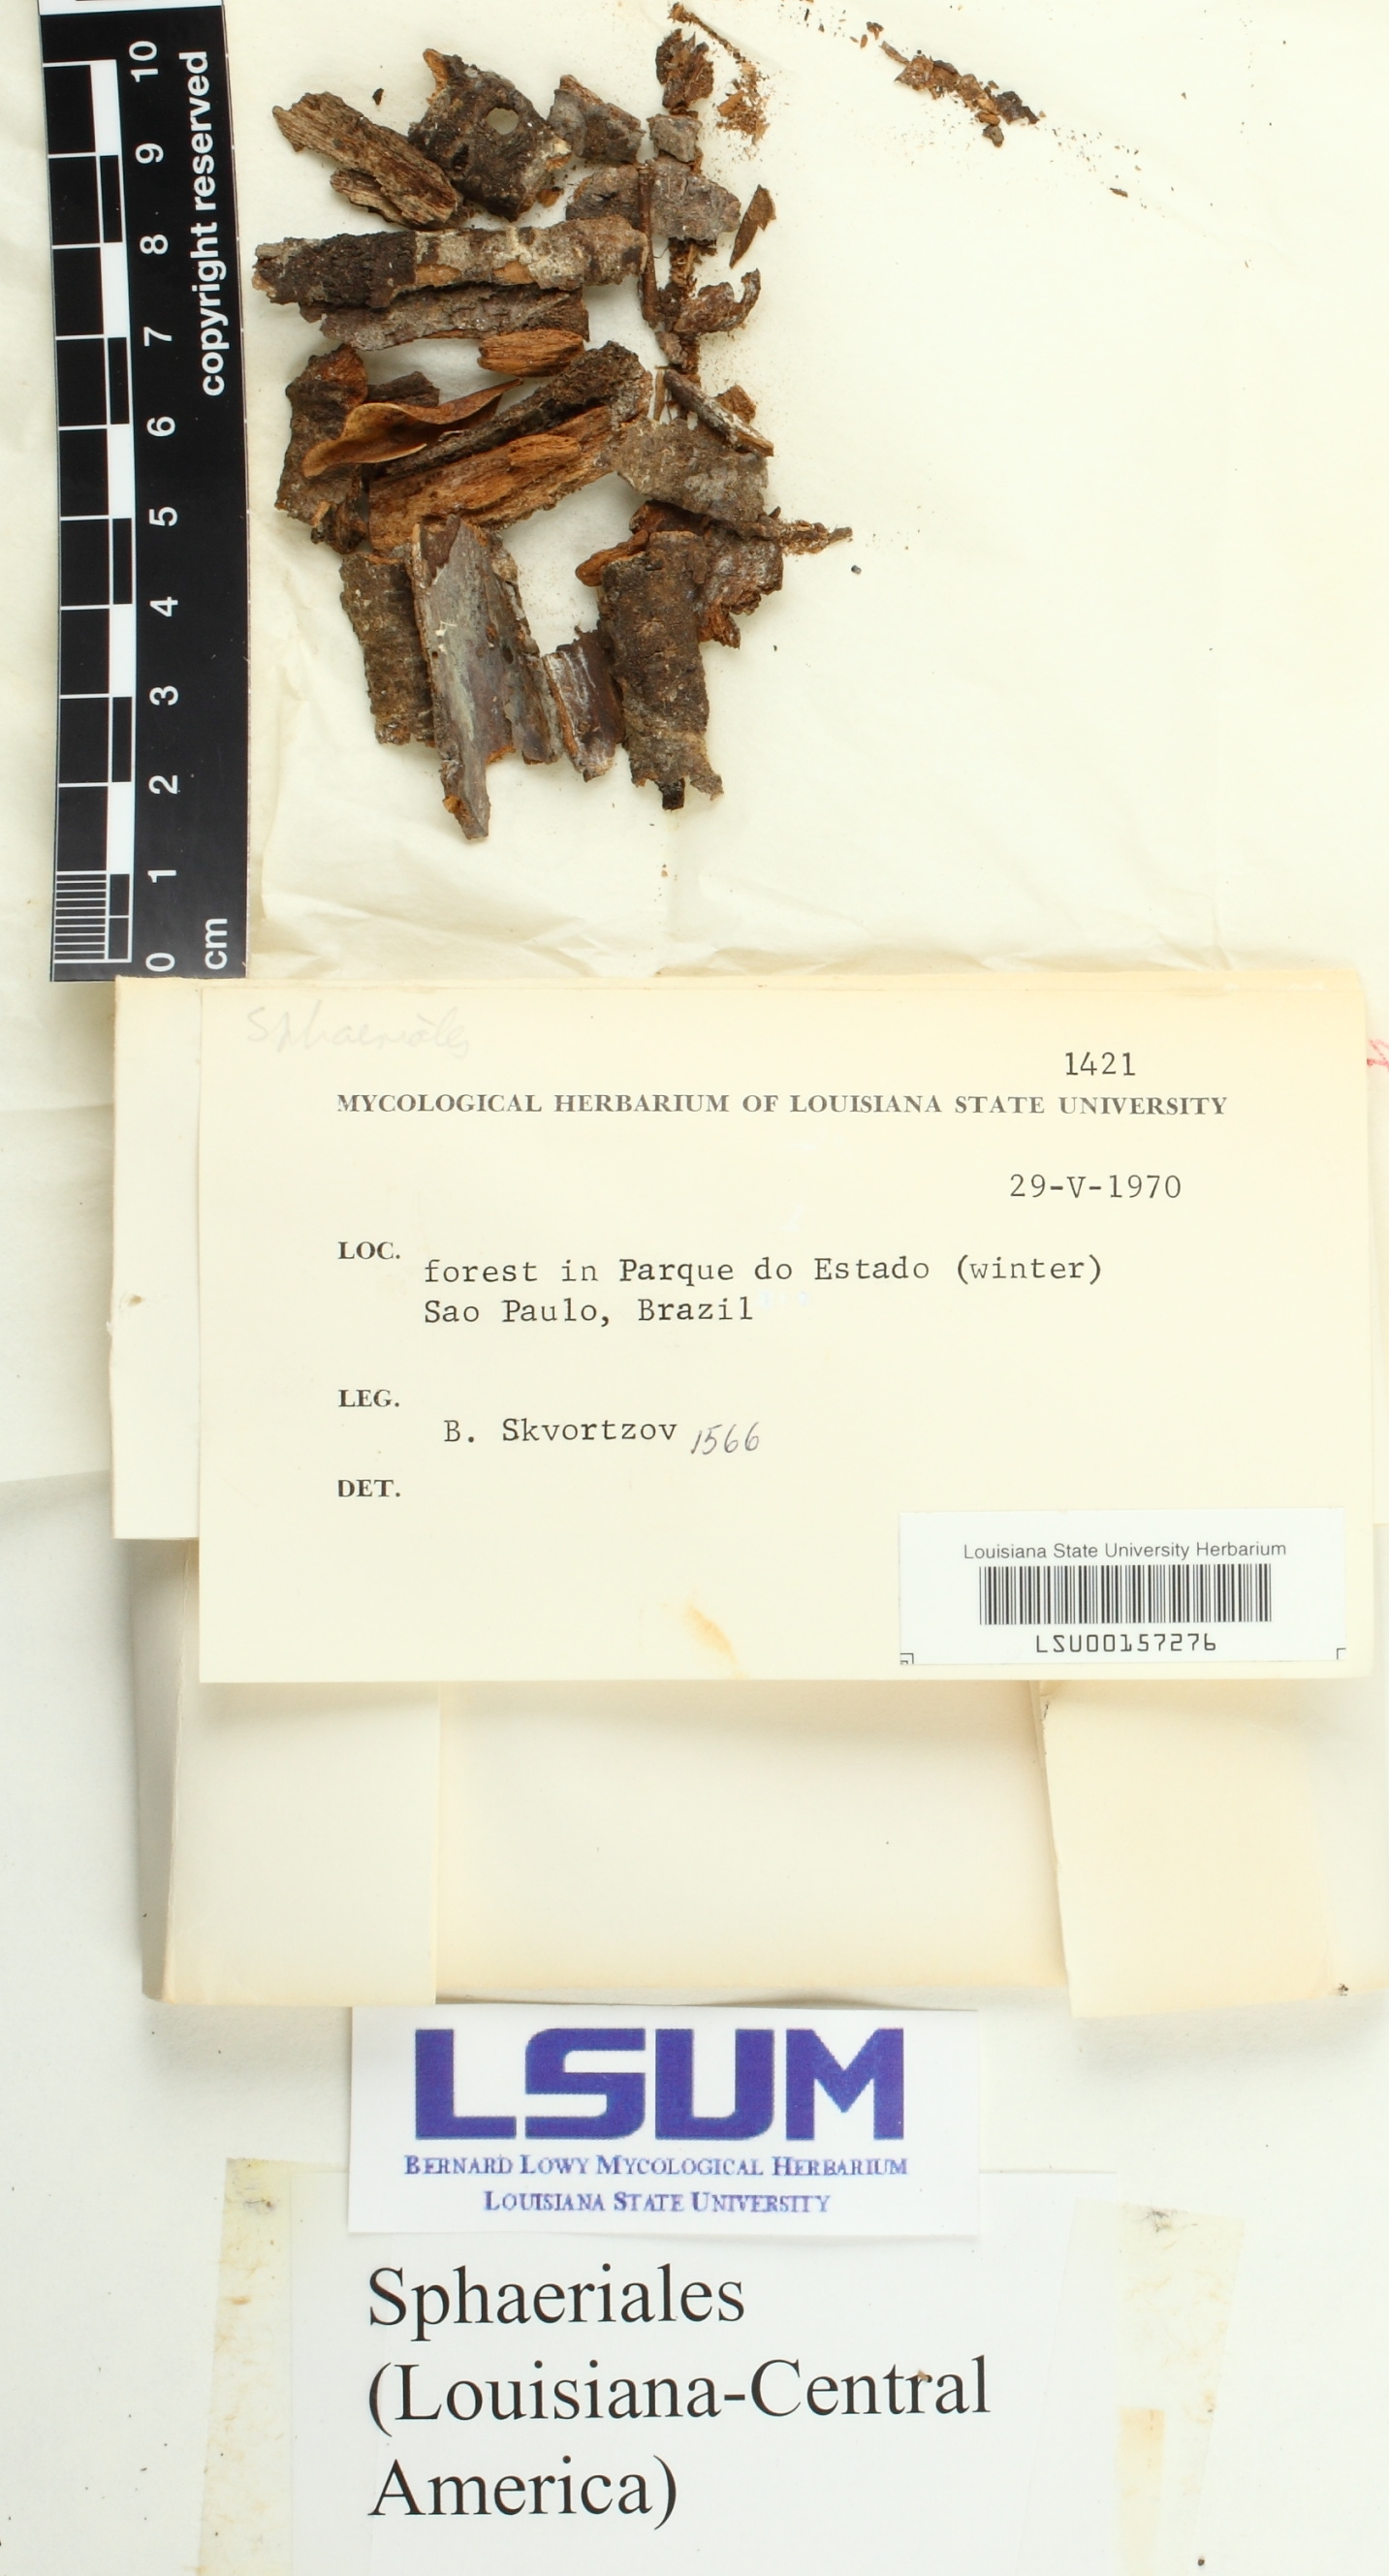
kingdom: Fungi
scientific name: Fungi
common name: Fungi
